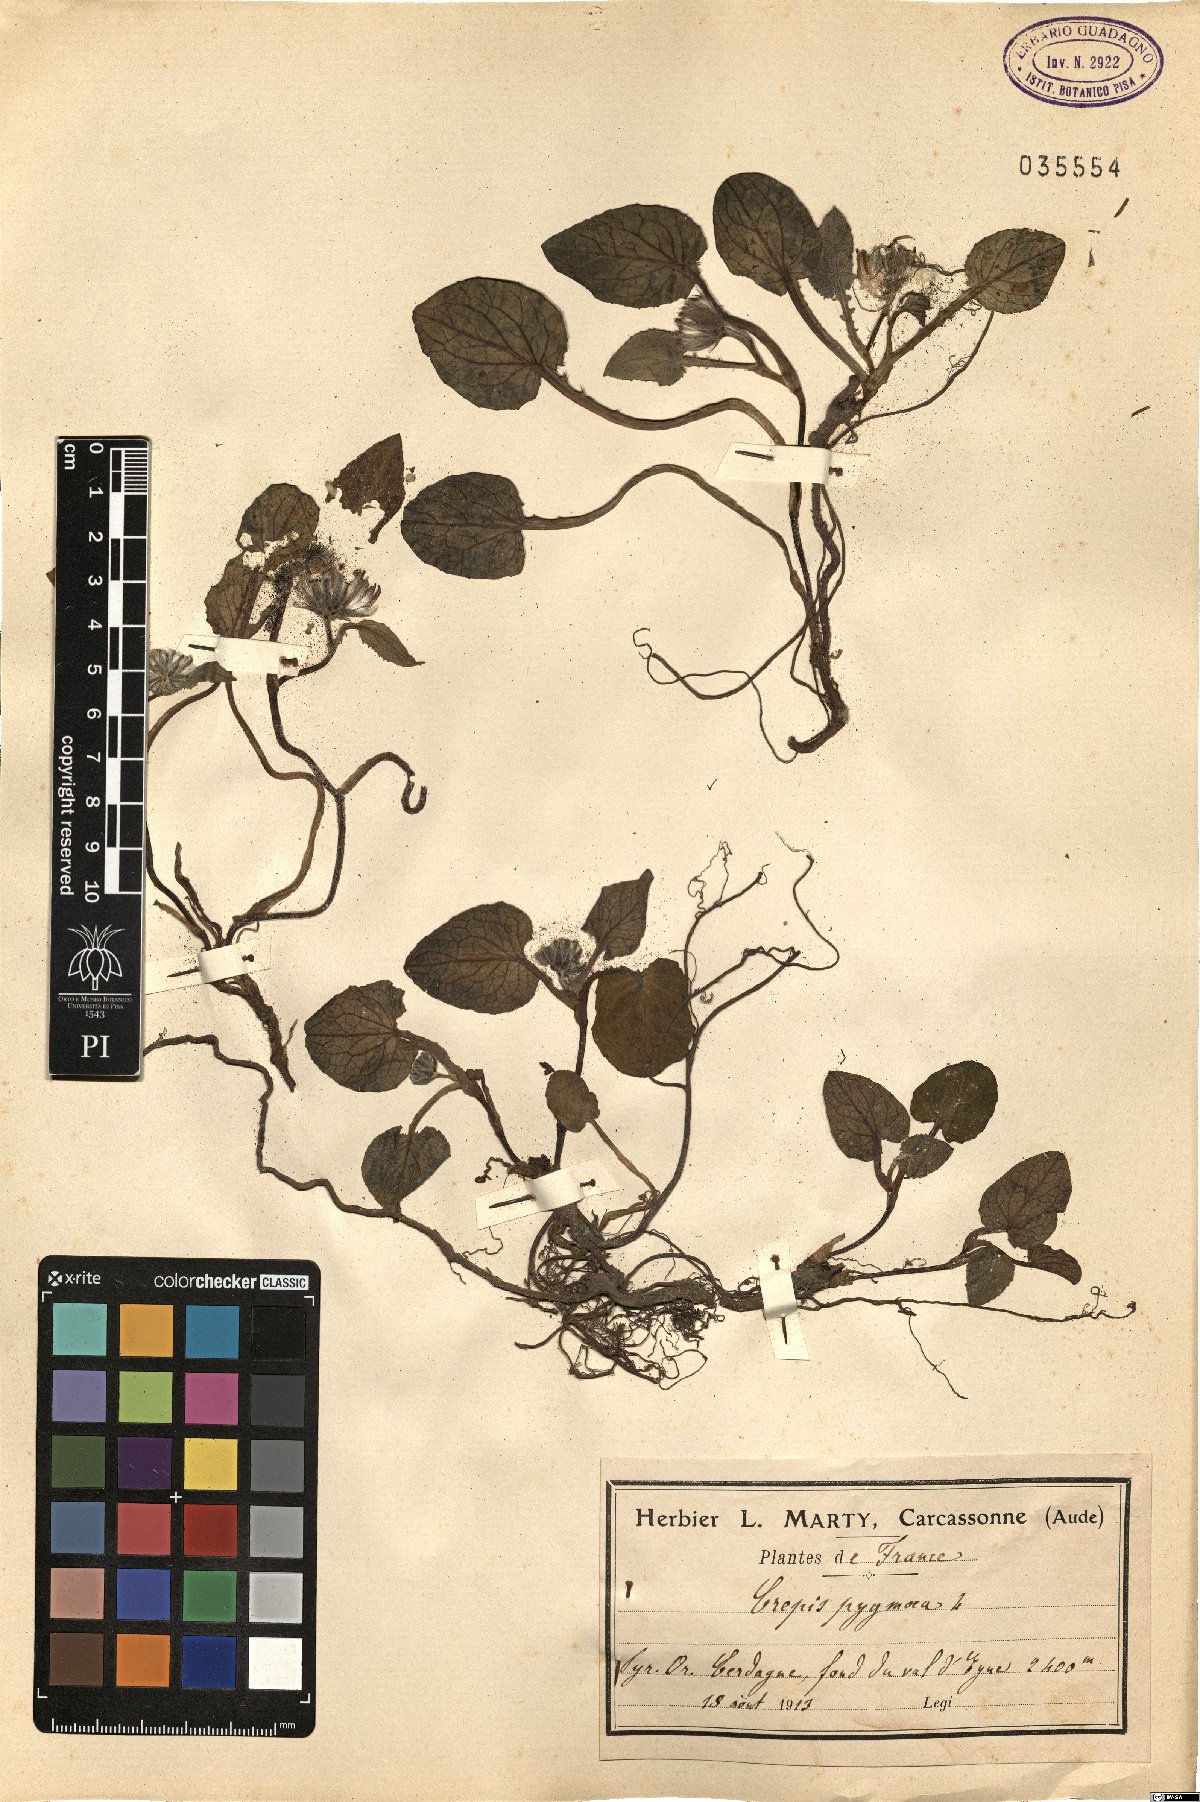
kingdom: Plantae
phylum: Tracheophyta
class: Magnoliopsida
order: Asterales
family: Asteraceae
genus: Crepis
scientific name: Crepis pygmaea
